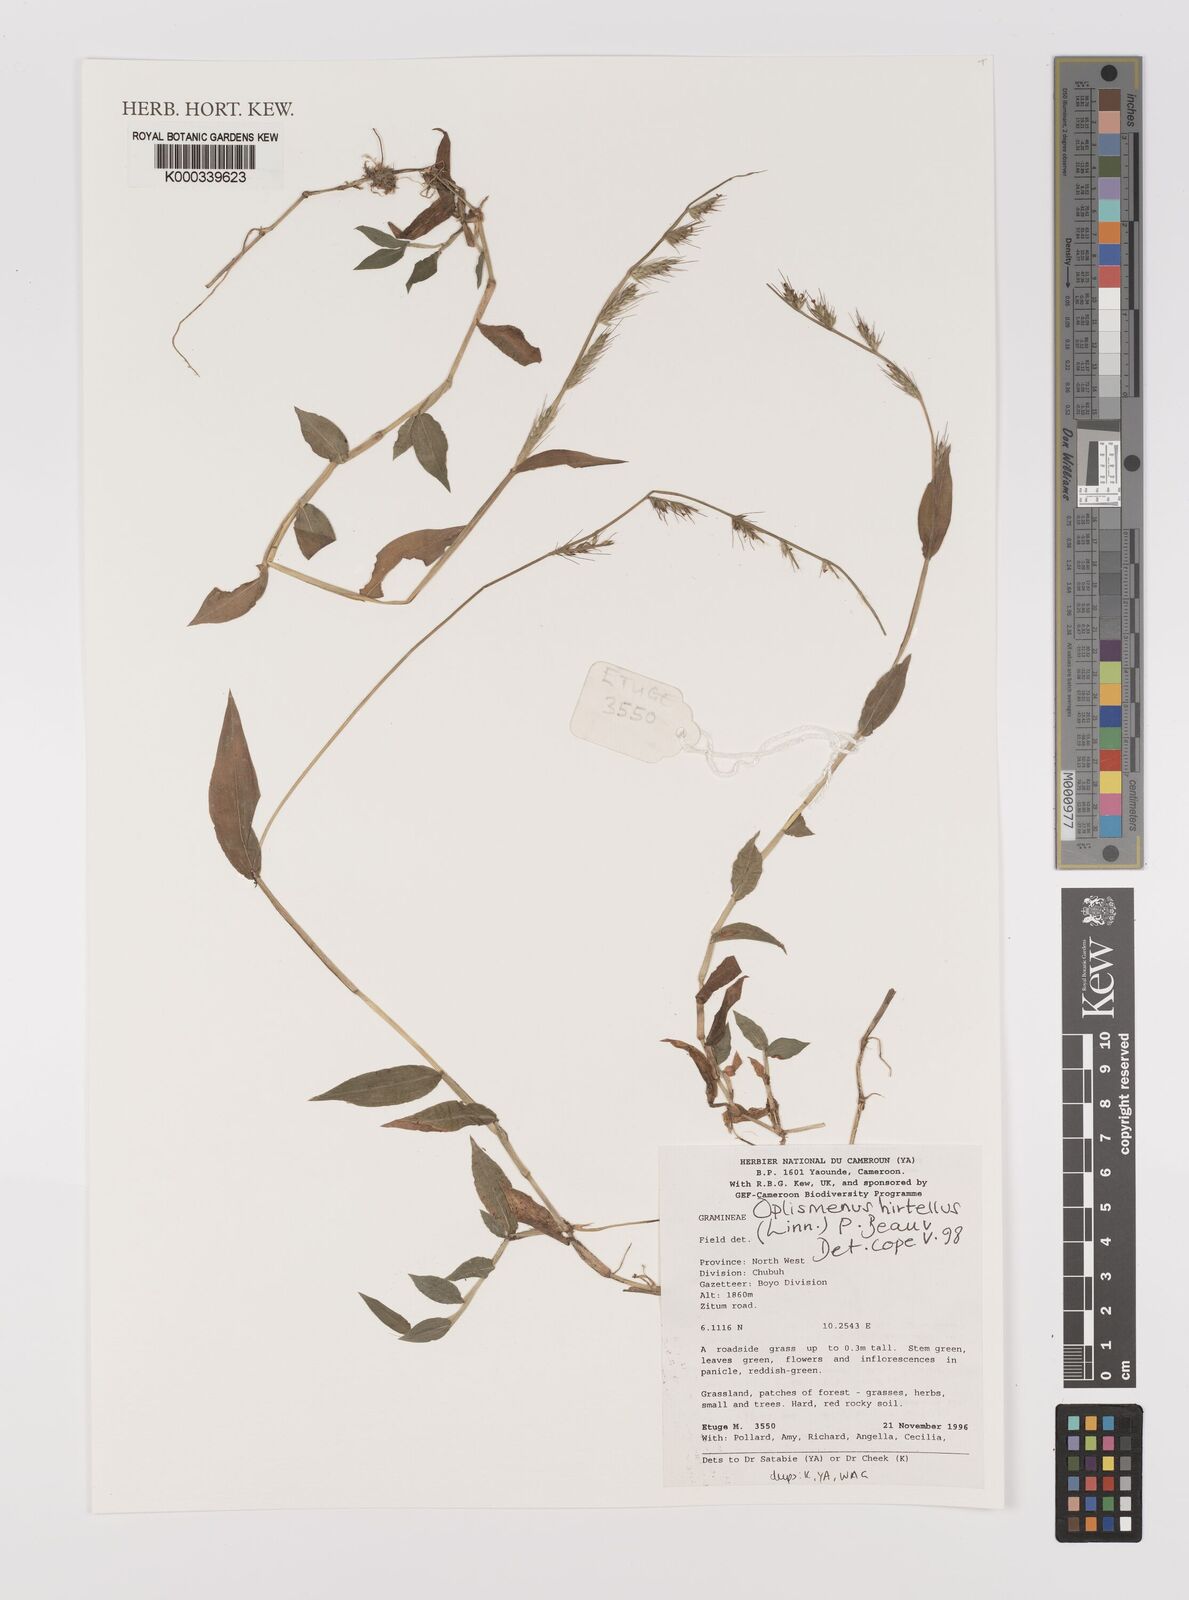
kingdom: Plantae
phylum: Tracheophyta
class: Liliopsida
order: Poales
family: Poaceae
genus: Oplismenus
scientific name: Oplismenus hirtellus
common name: Basketgrass
